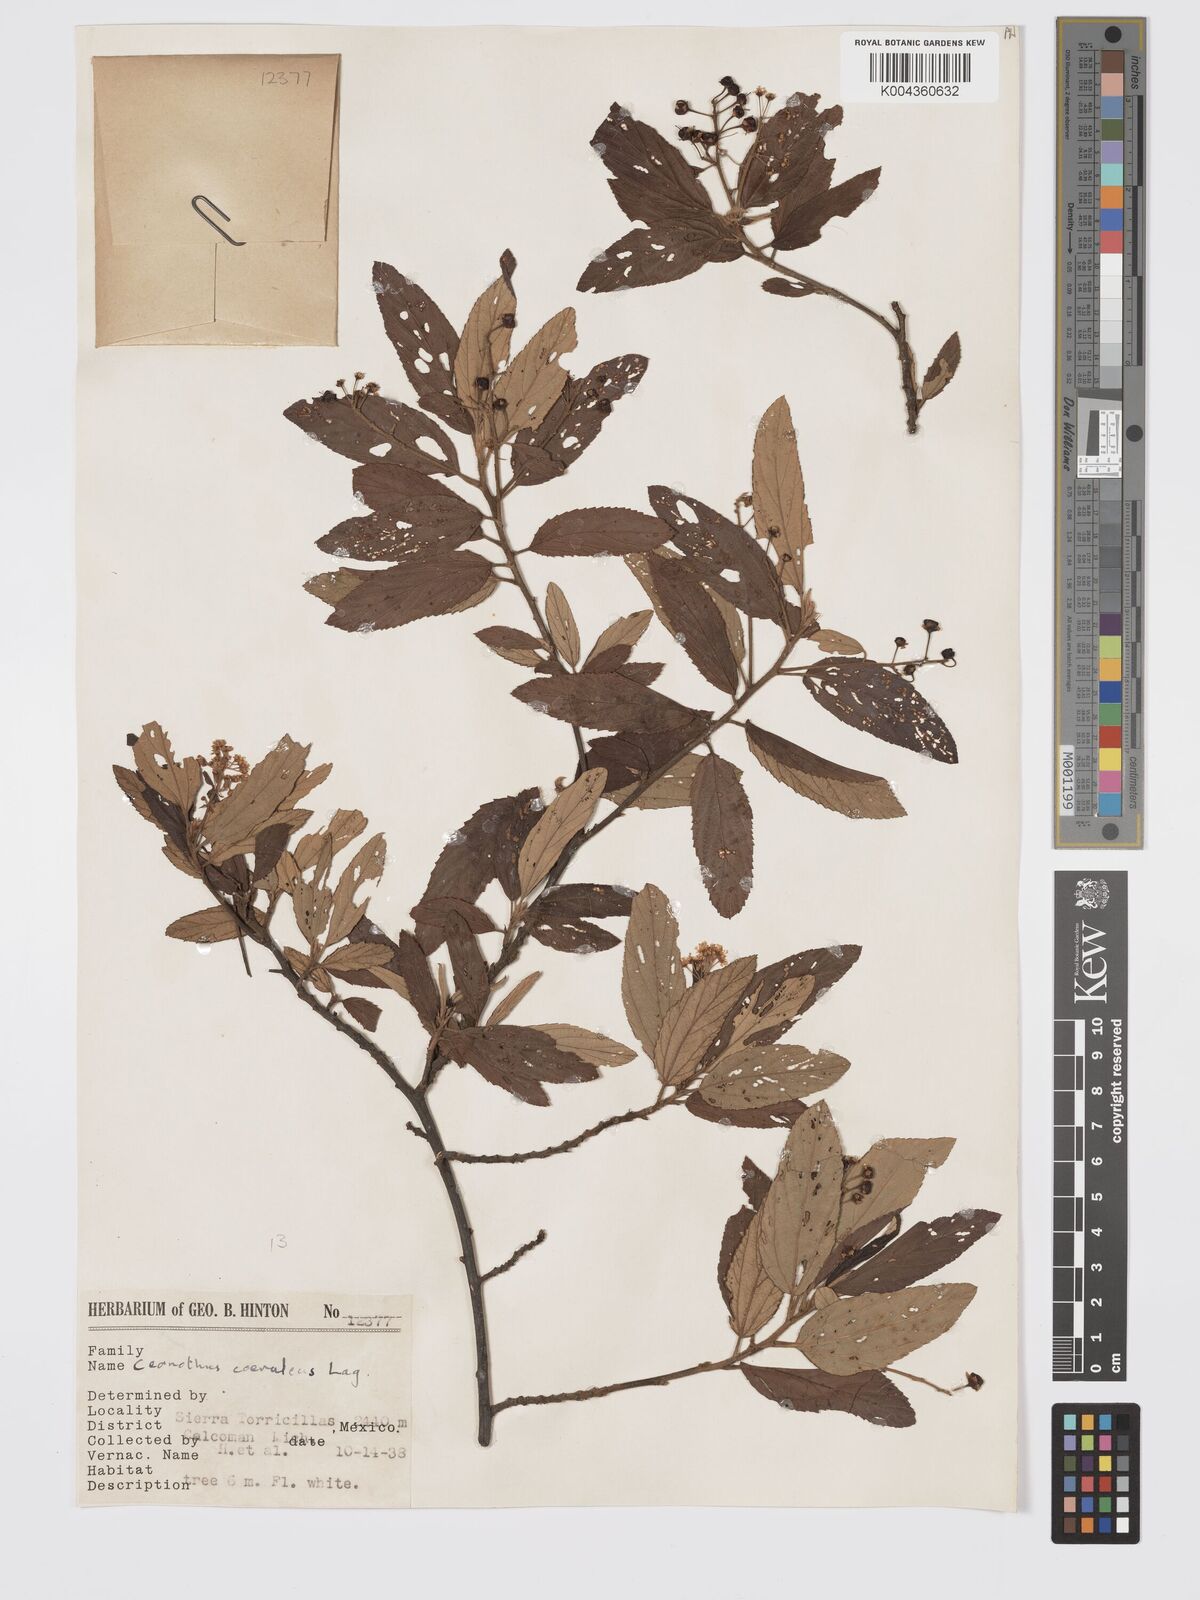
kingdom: Plantae
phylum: Tracheophyta
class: Magnoliopsida
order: Rosales
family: Rhamnaceae
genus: Ceanothus
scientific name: Ceanothus caeruleus
